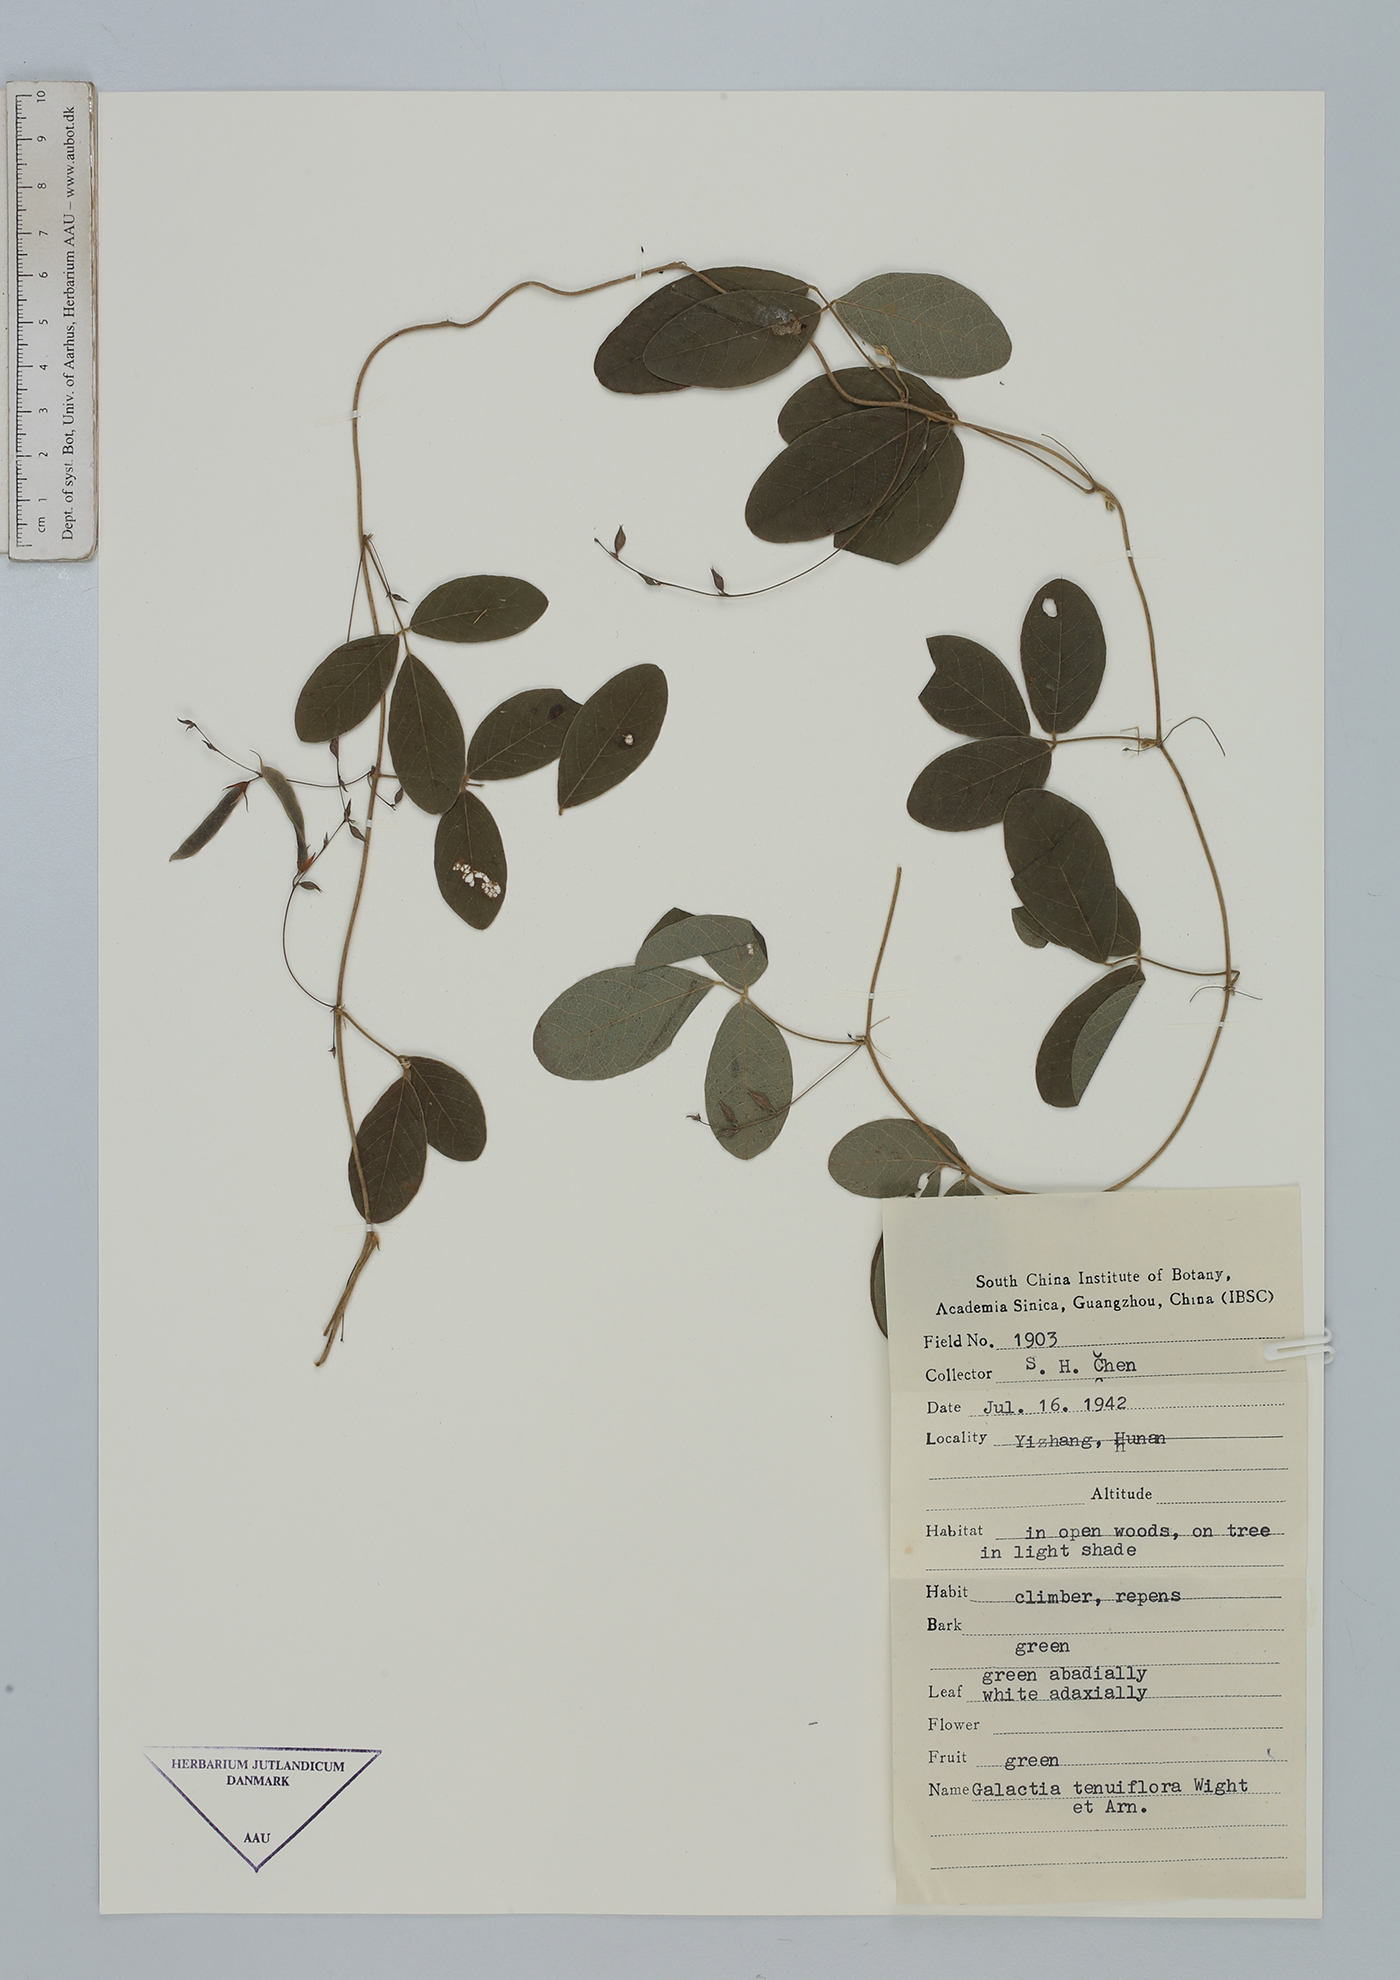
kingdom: Plantae
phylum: Tracheophyta
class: Magnoliopsida
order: Fabales
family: Fabaceae
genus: Galactia
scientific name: Galactia striata
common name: Florida hammock milkpea
